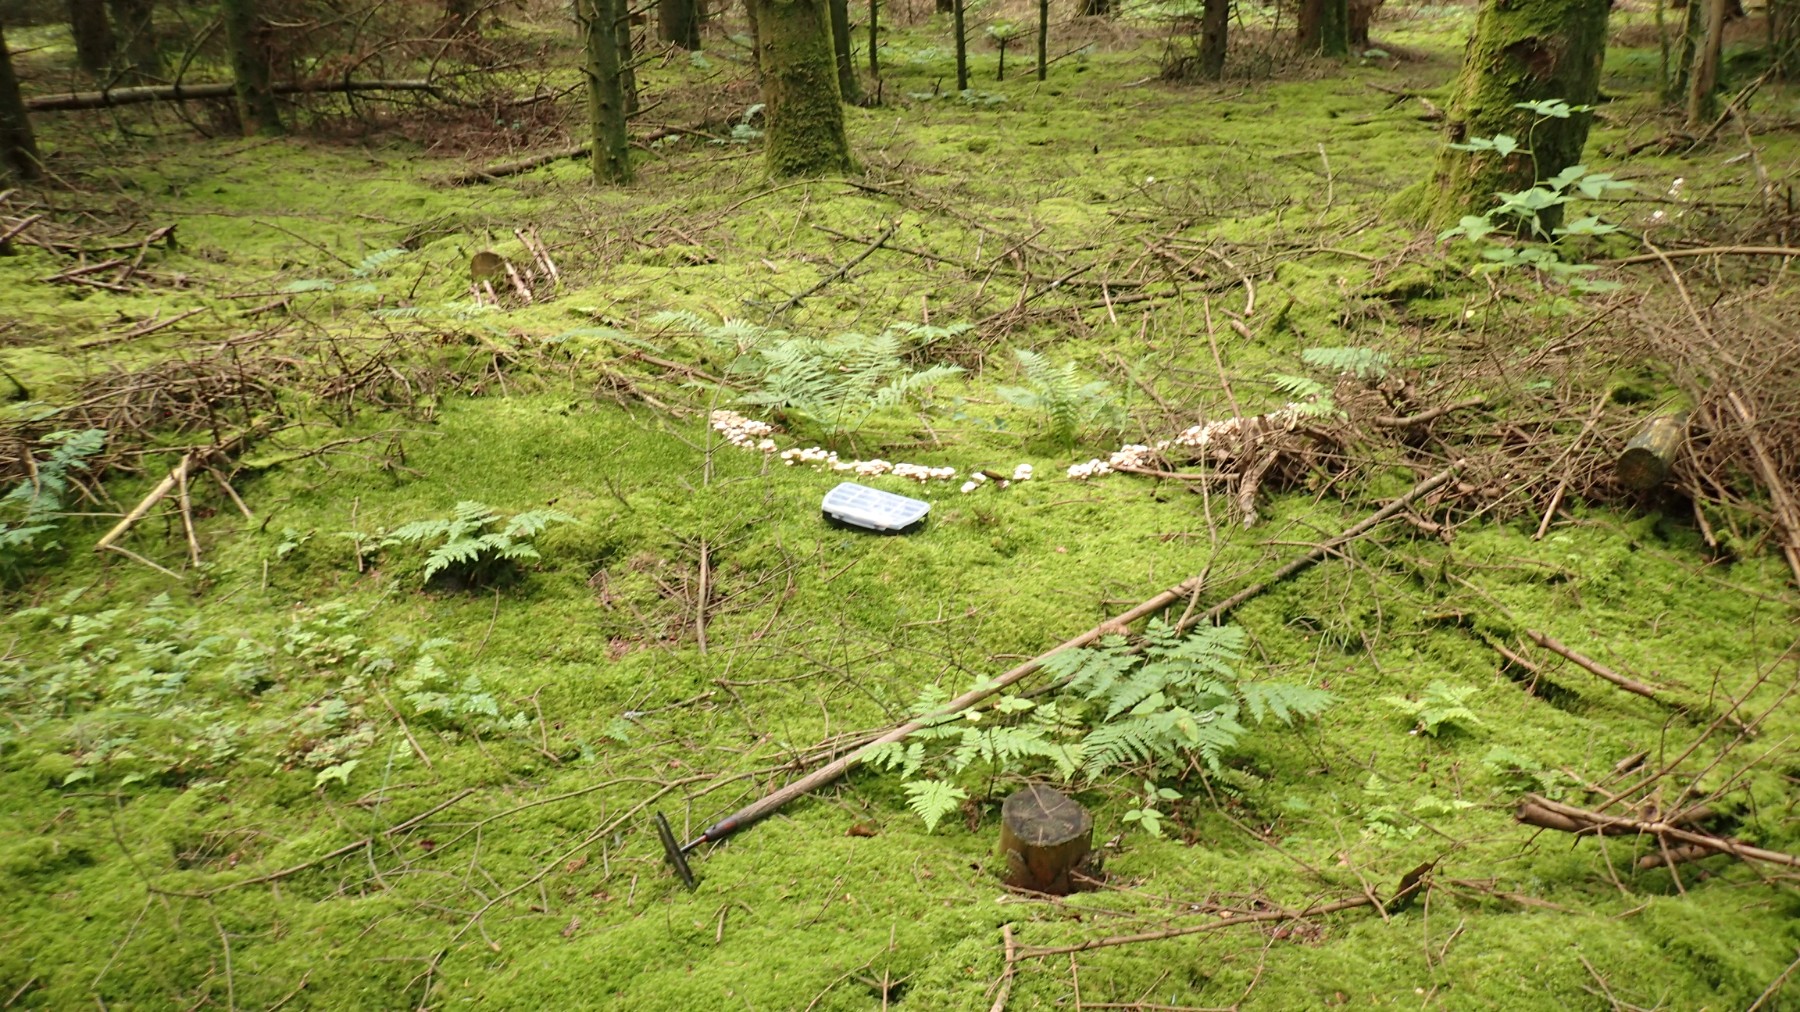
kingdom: Fungi
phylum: Basidiomycota
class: Agaricomycetes
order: Agaricales
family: Omphalotaceae
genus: Collybiopsis
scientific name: Collybiopsis confluens
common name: knippe-fladhat
